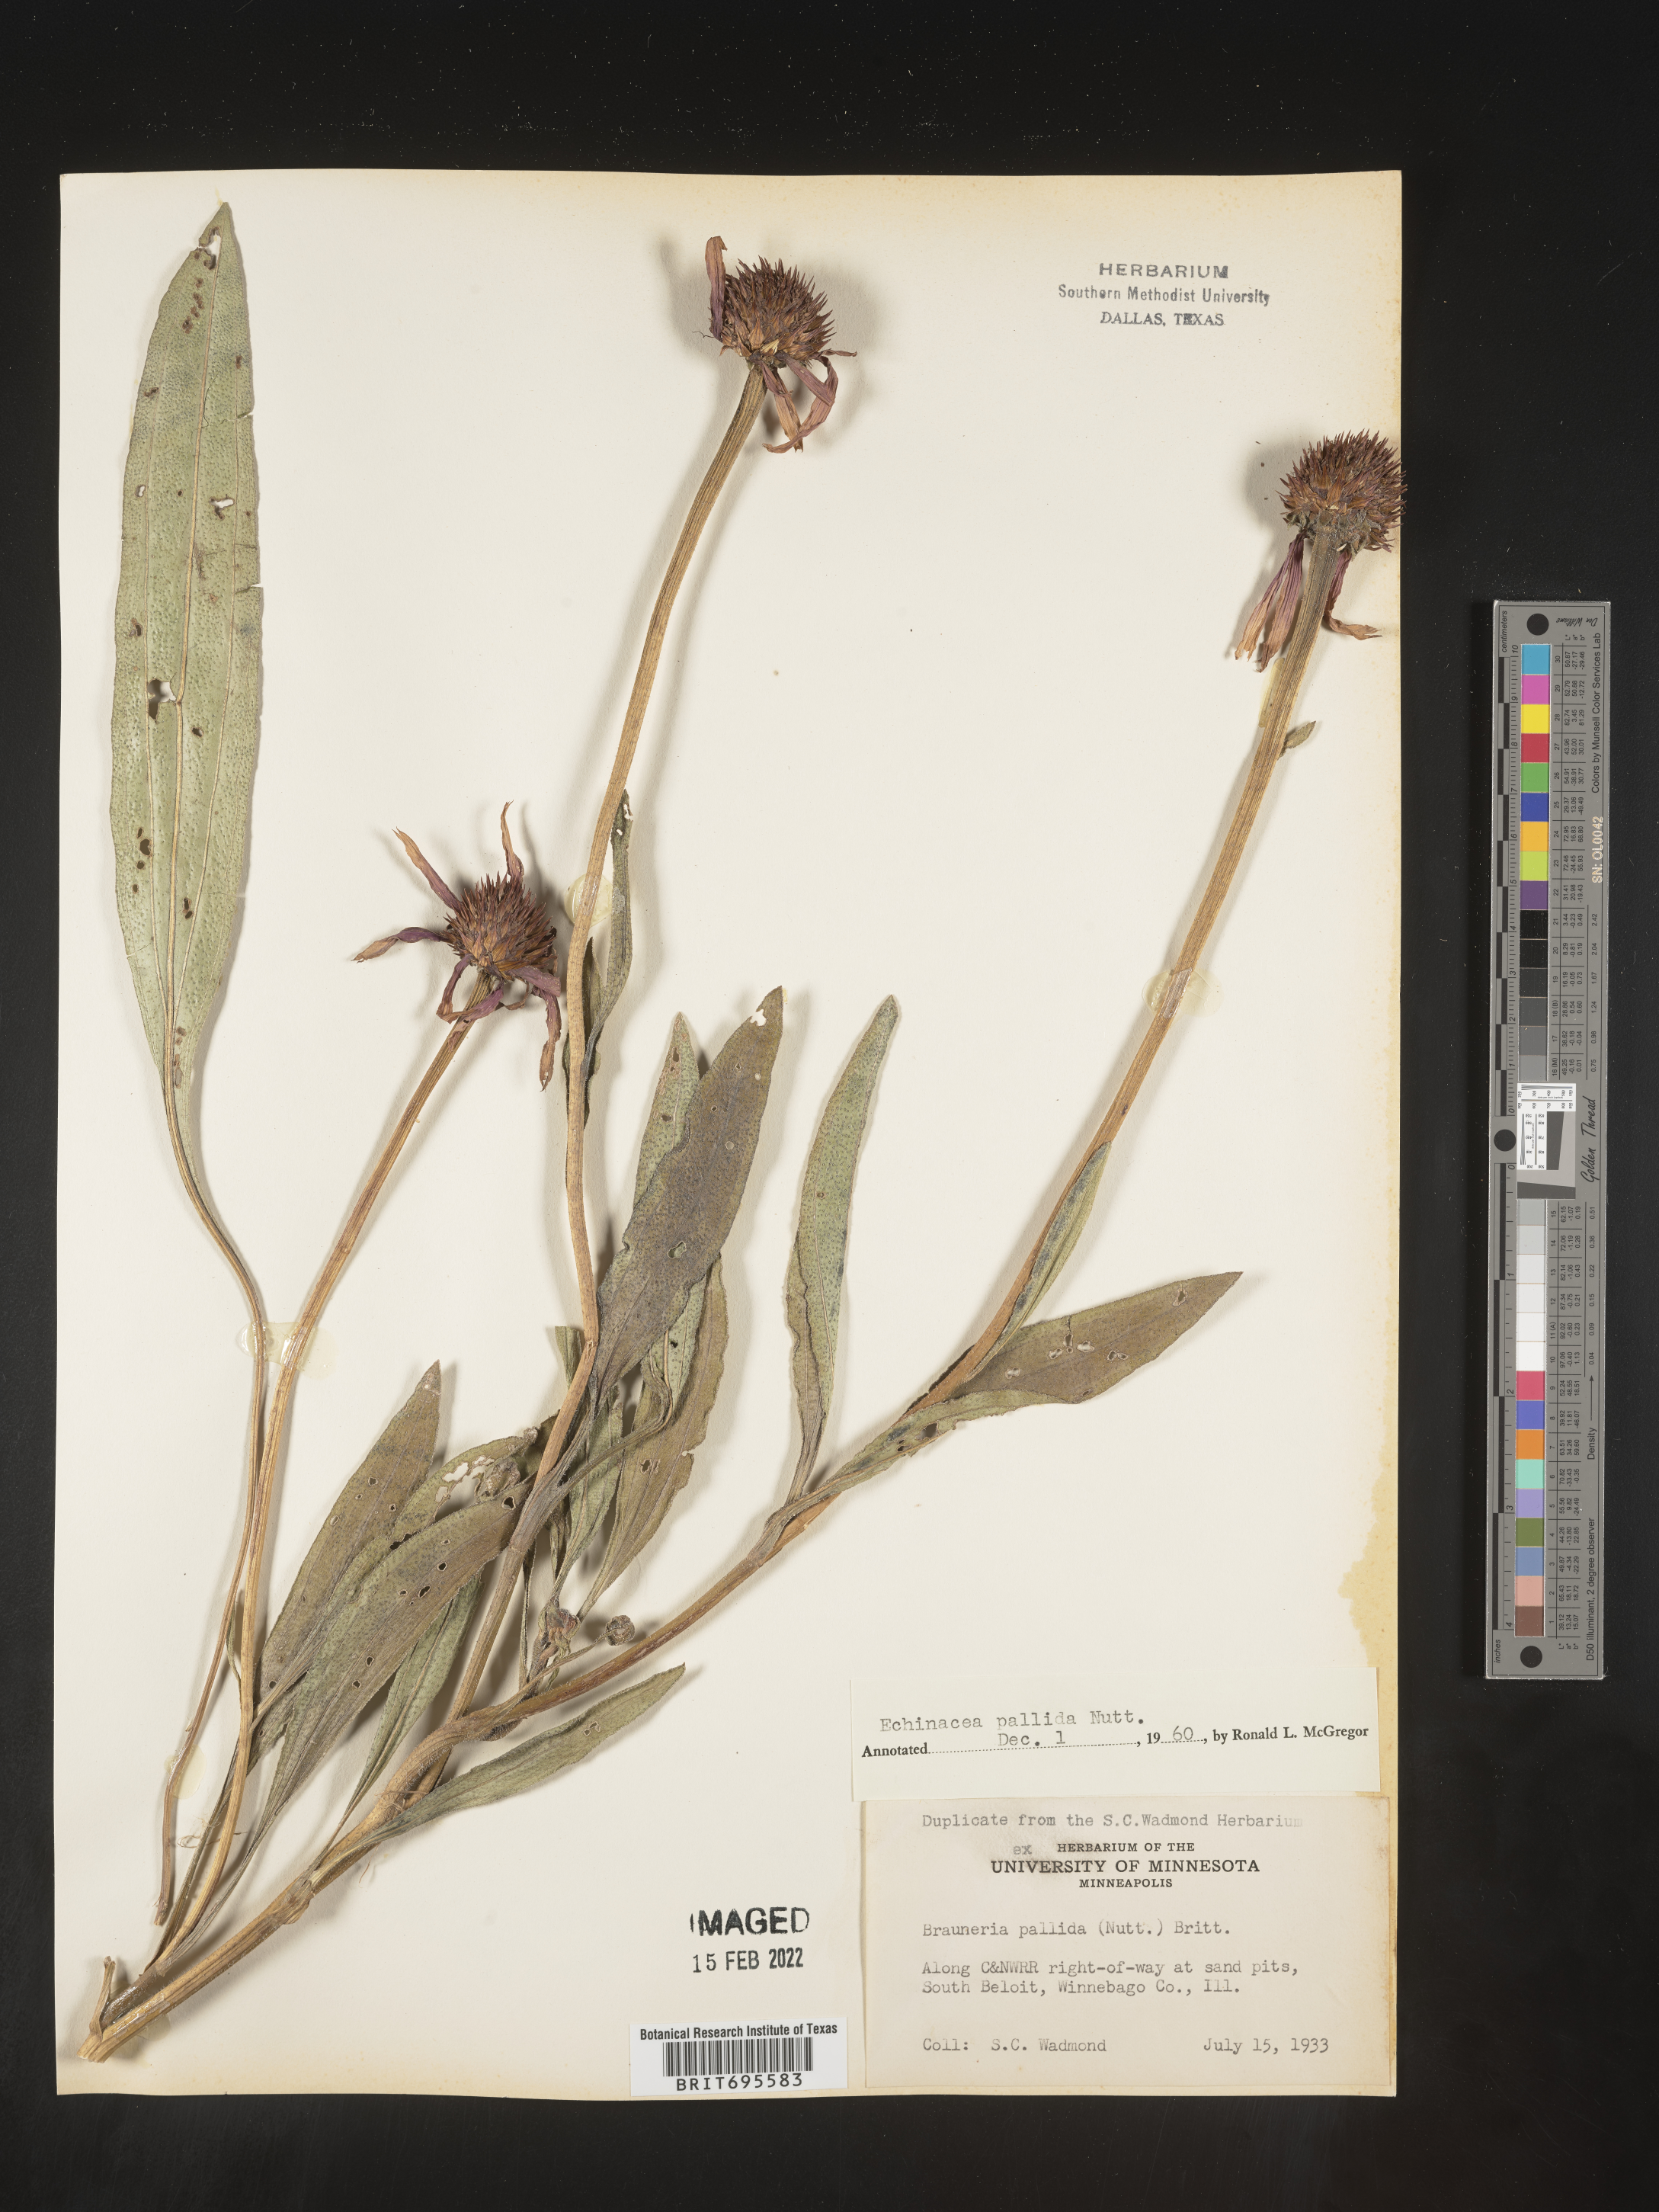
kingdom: Plantae
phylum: Tracheophyta
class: Magnoliopsida
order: Asterales
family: Asteraceae
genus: Echinacea
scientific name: Echinacea pallida
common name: Pale echinacea
